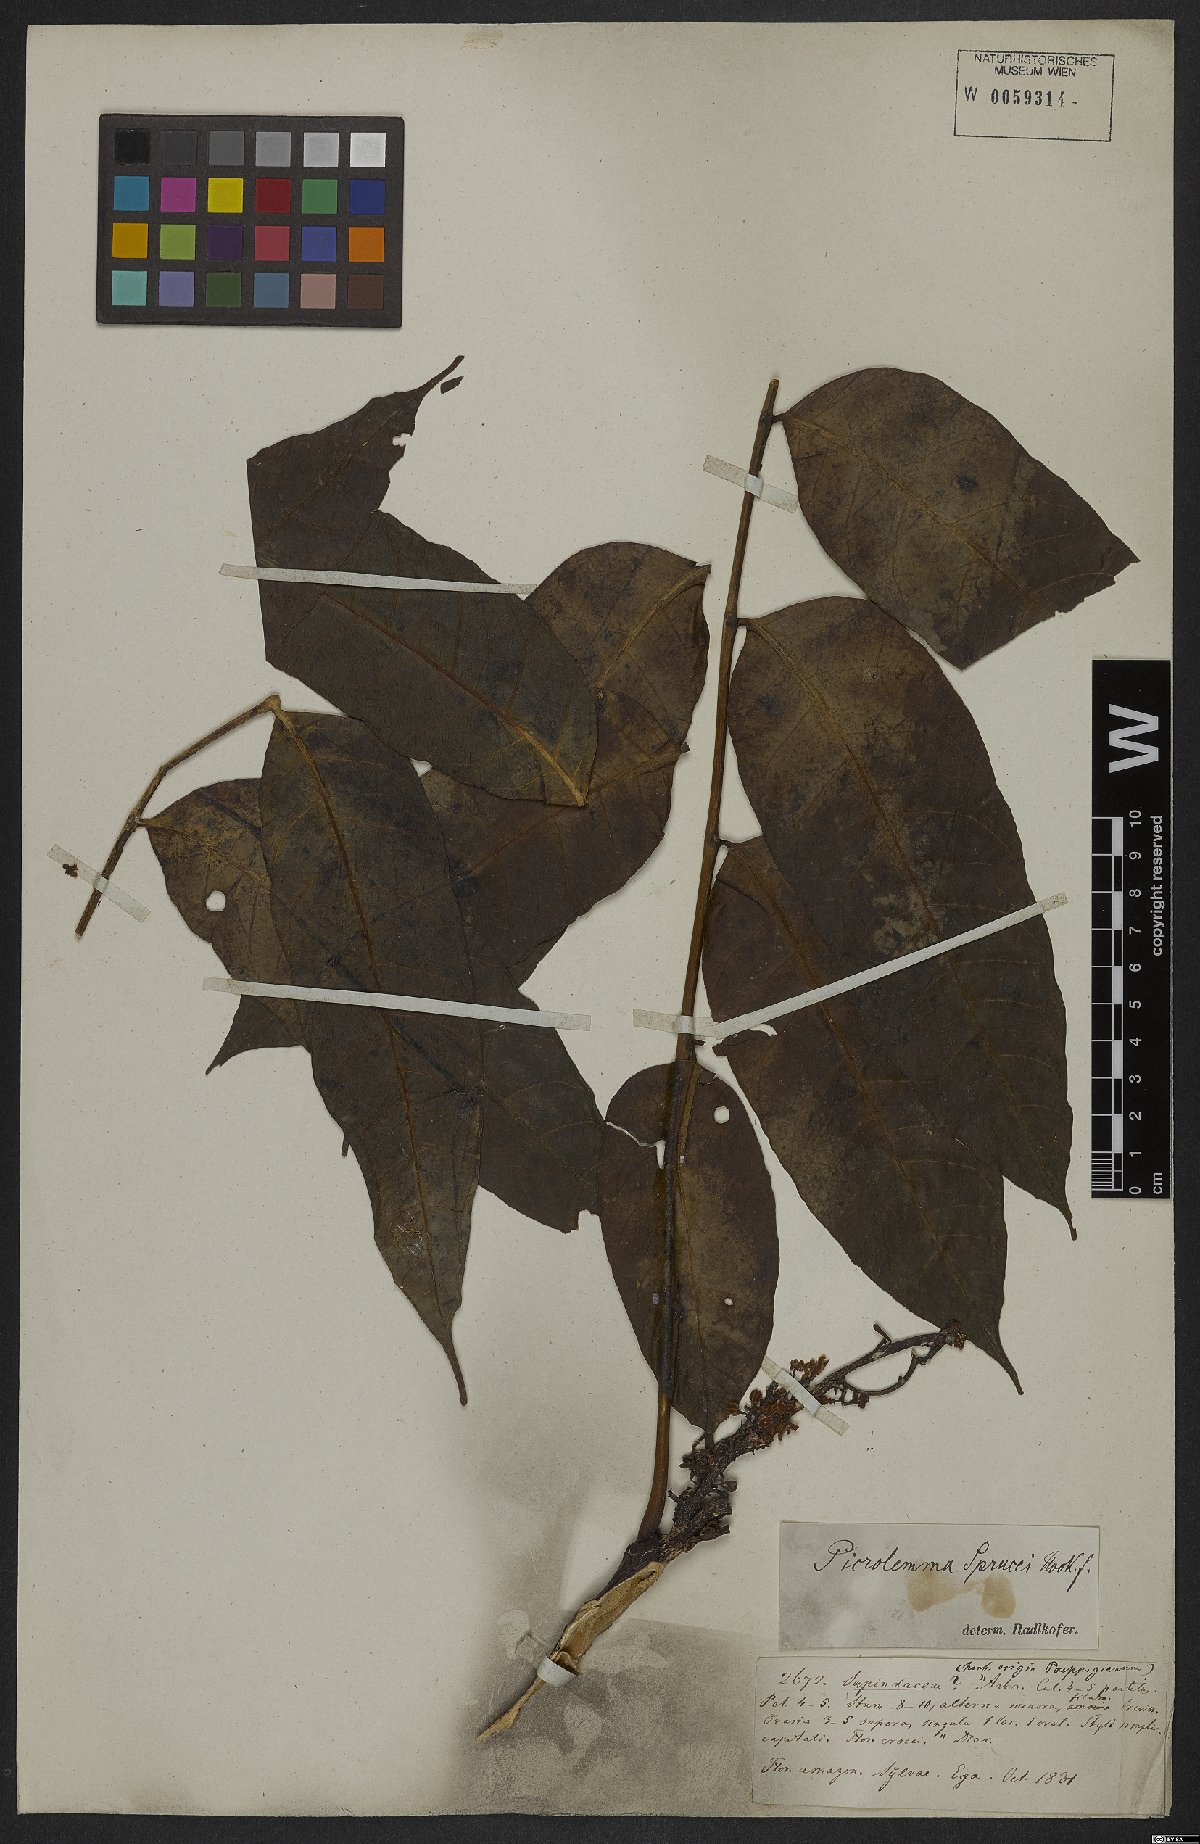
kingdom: Plantae
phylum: Tracheophyta
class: Magnoliopsida
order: Sapindales
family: Simaroubaceae
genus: Picrolemma
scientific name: Picrolemma sprucei
